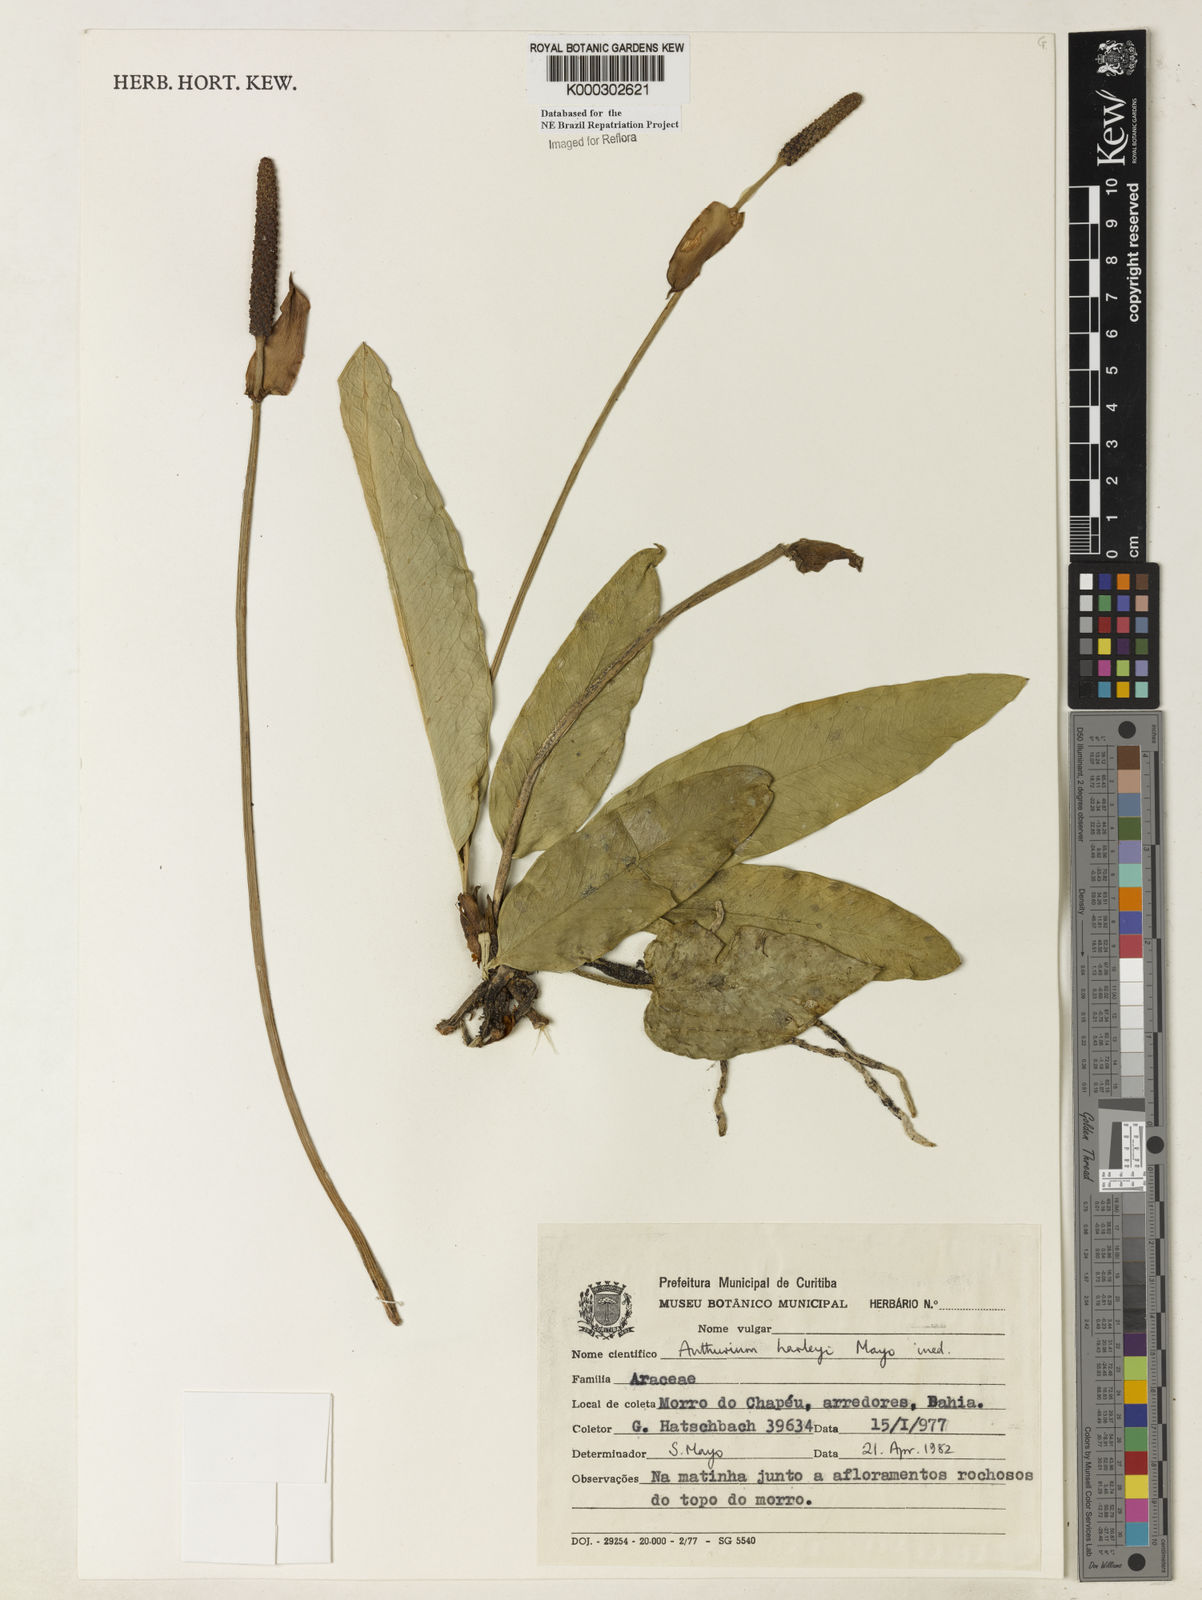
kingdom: Plantae
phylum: Tracheophyta
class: Liliopsida
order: Alismatales
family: Araceae
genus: Anthurium
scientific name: Anthurium
